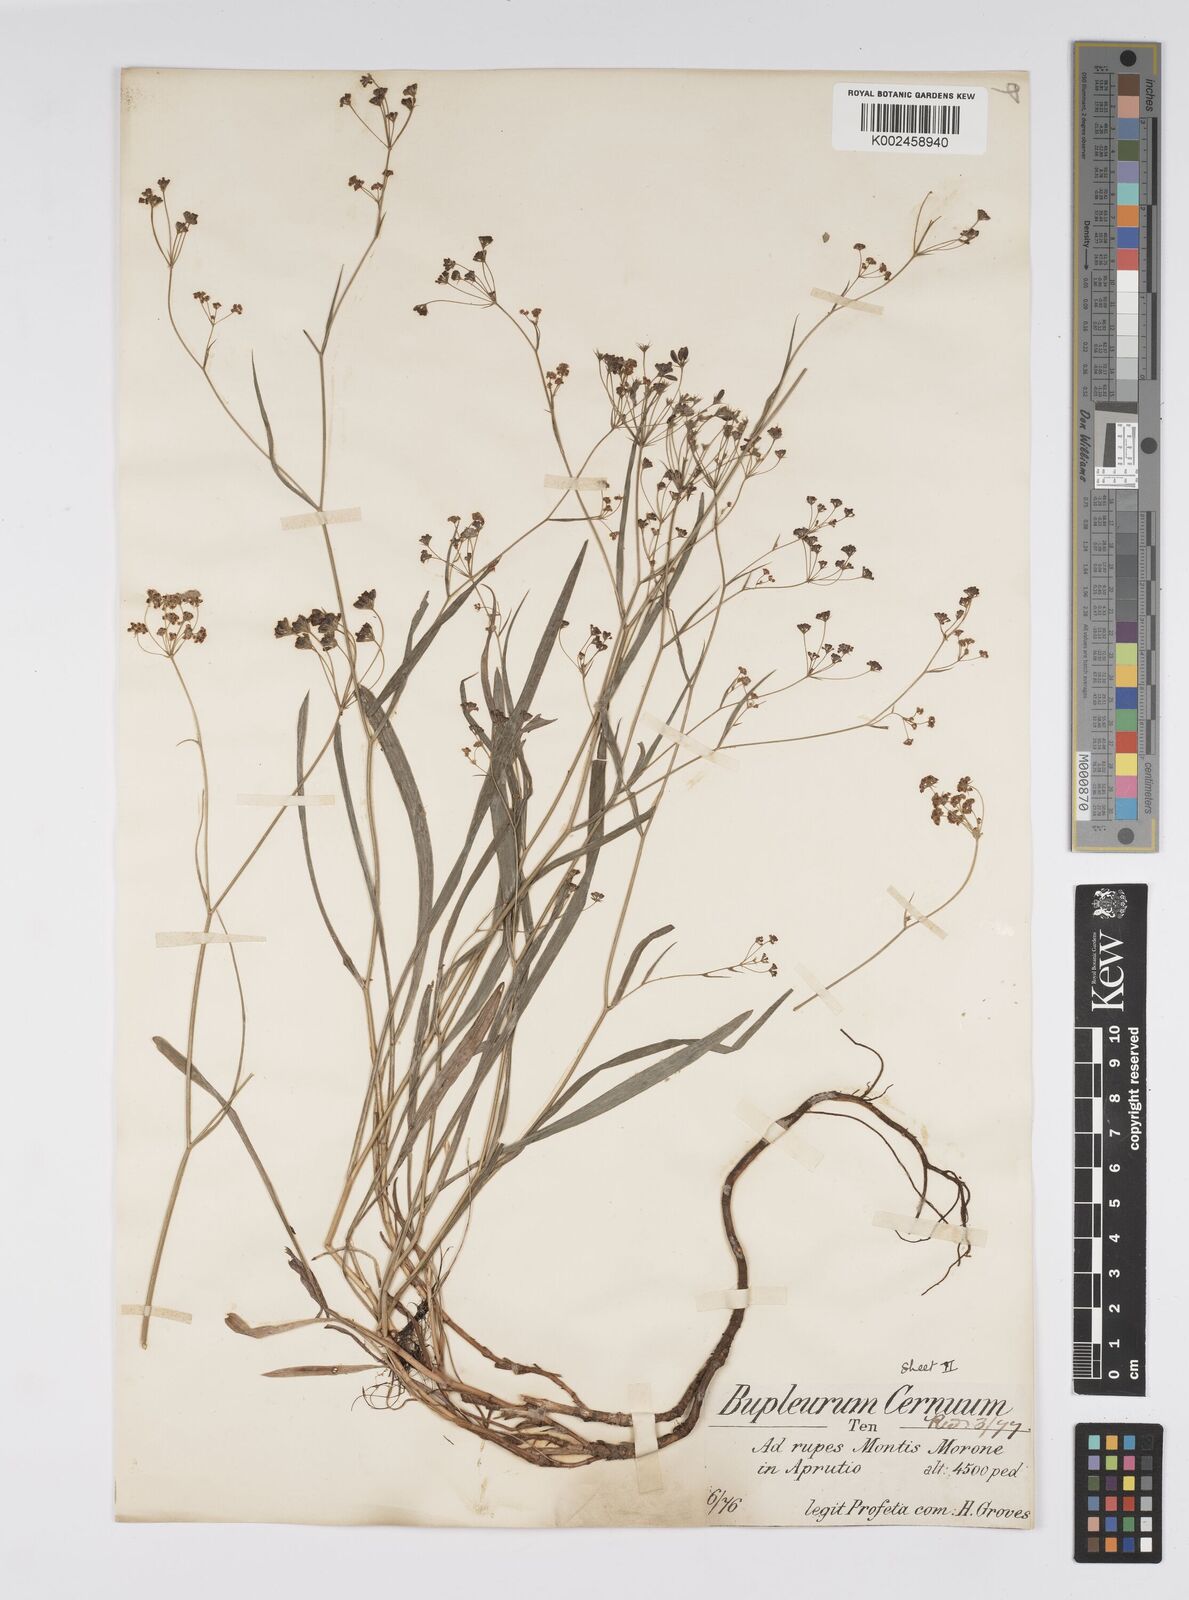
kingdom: Plantae
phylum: Tracheophyta
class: Magnoliopsida
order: Apiales
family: Apiaceae
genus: Bupleurum
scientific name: Bupleurum falcatum
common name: Sickle-leaved hare's-ear
